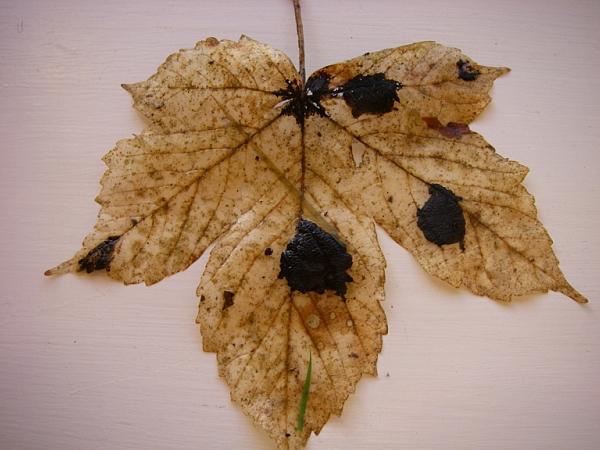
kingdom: Fungi
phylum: Ascomycota
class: Leotiomycetes
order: Rhytismatales
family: Rhytismataceae
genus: Rhytisma
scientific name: Rhytisma acerinum
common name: ahorn-rynkeplet
